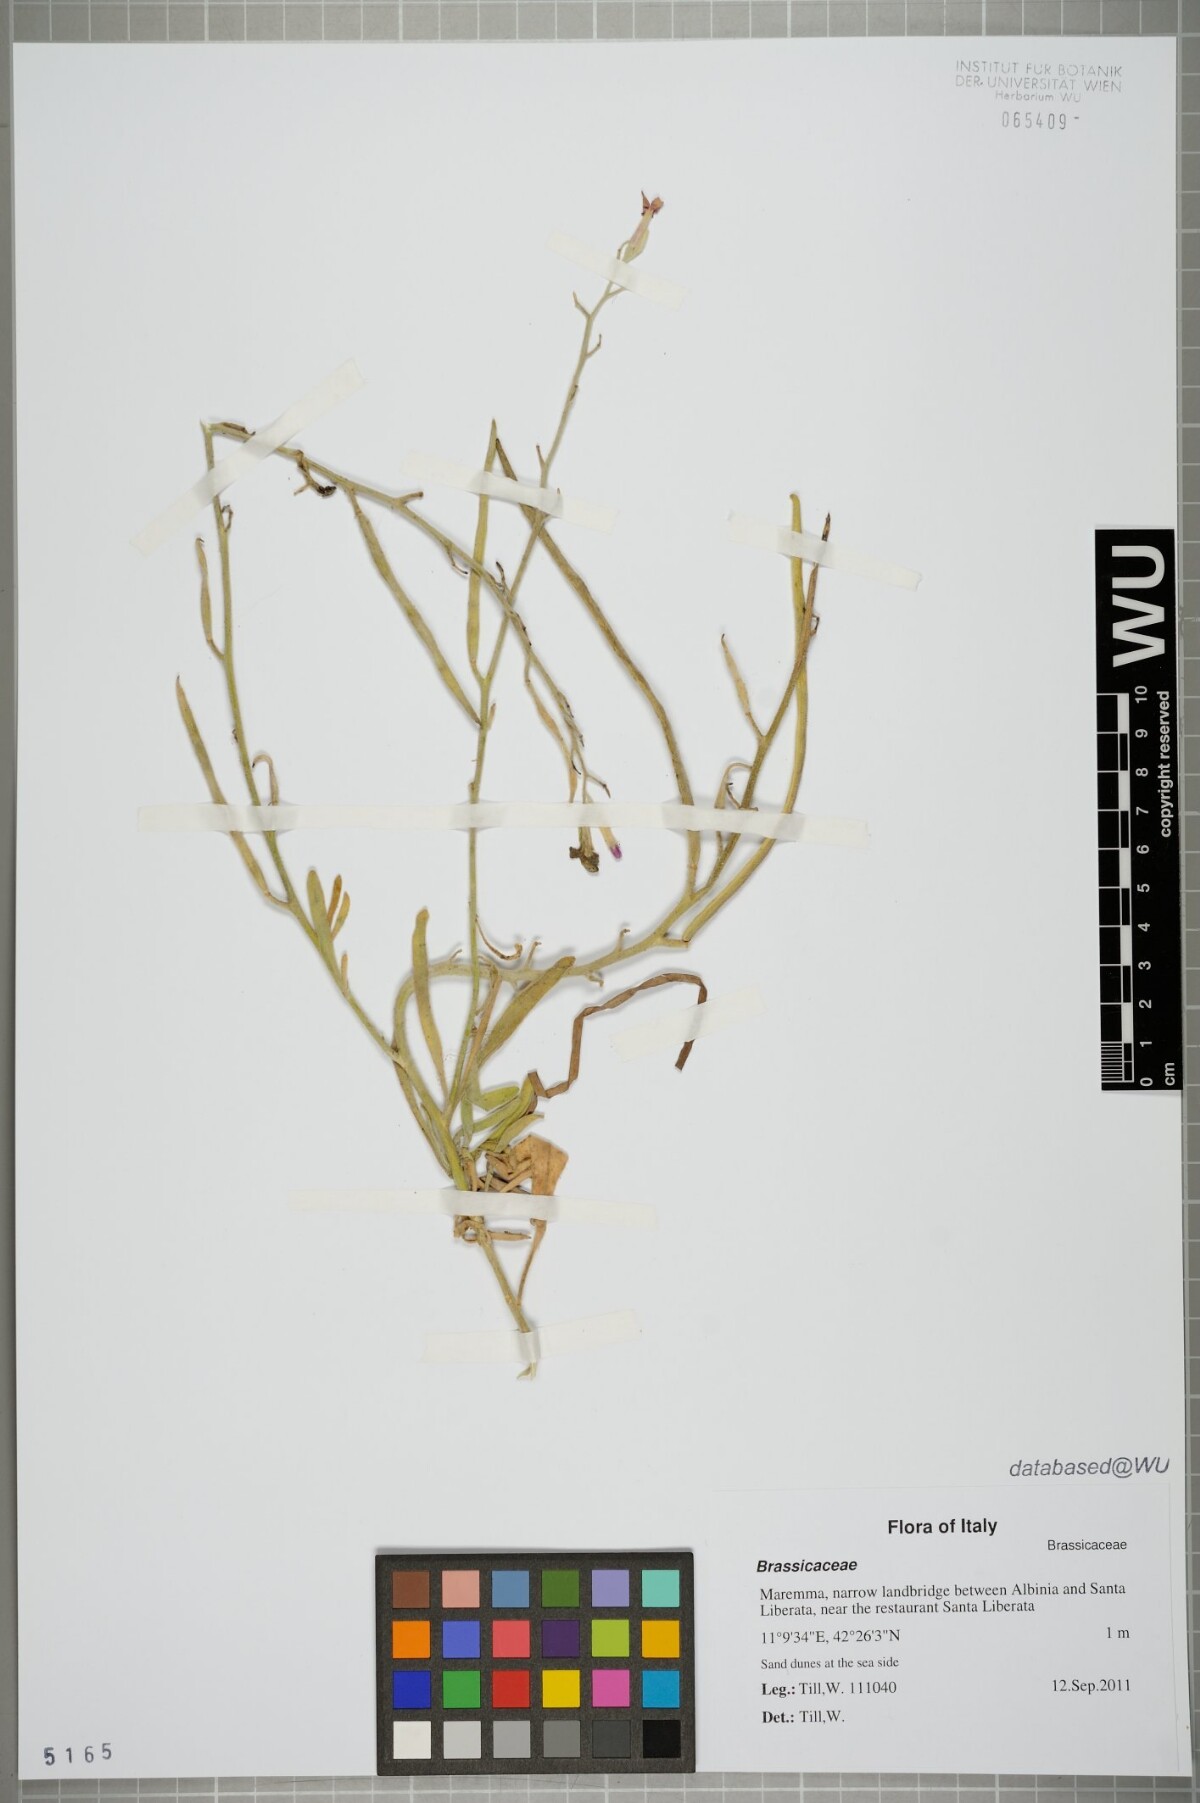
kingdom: Plantae
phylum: Tracheophyta
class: Magnoliopsida
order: Brassicales
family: Brassicaceae
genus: Matthiola
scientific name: Matthiola incana
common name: Hoary stock
